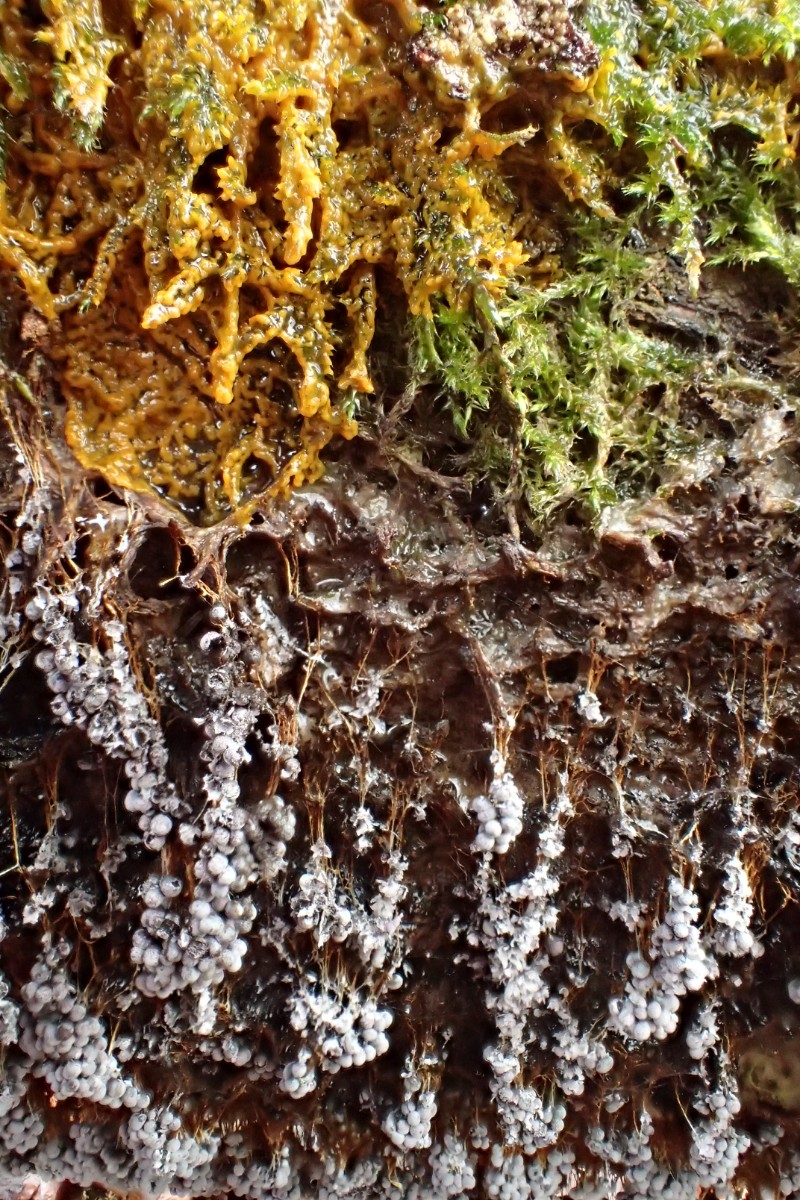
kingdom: Protozoa
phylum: Mycetozoa
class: Myxomycetes
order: Physarales
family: Physaraceae
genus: Badhamia
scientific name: Badhamia utricularis
